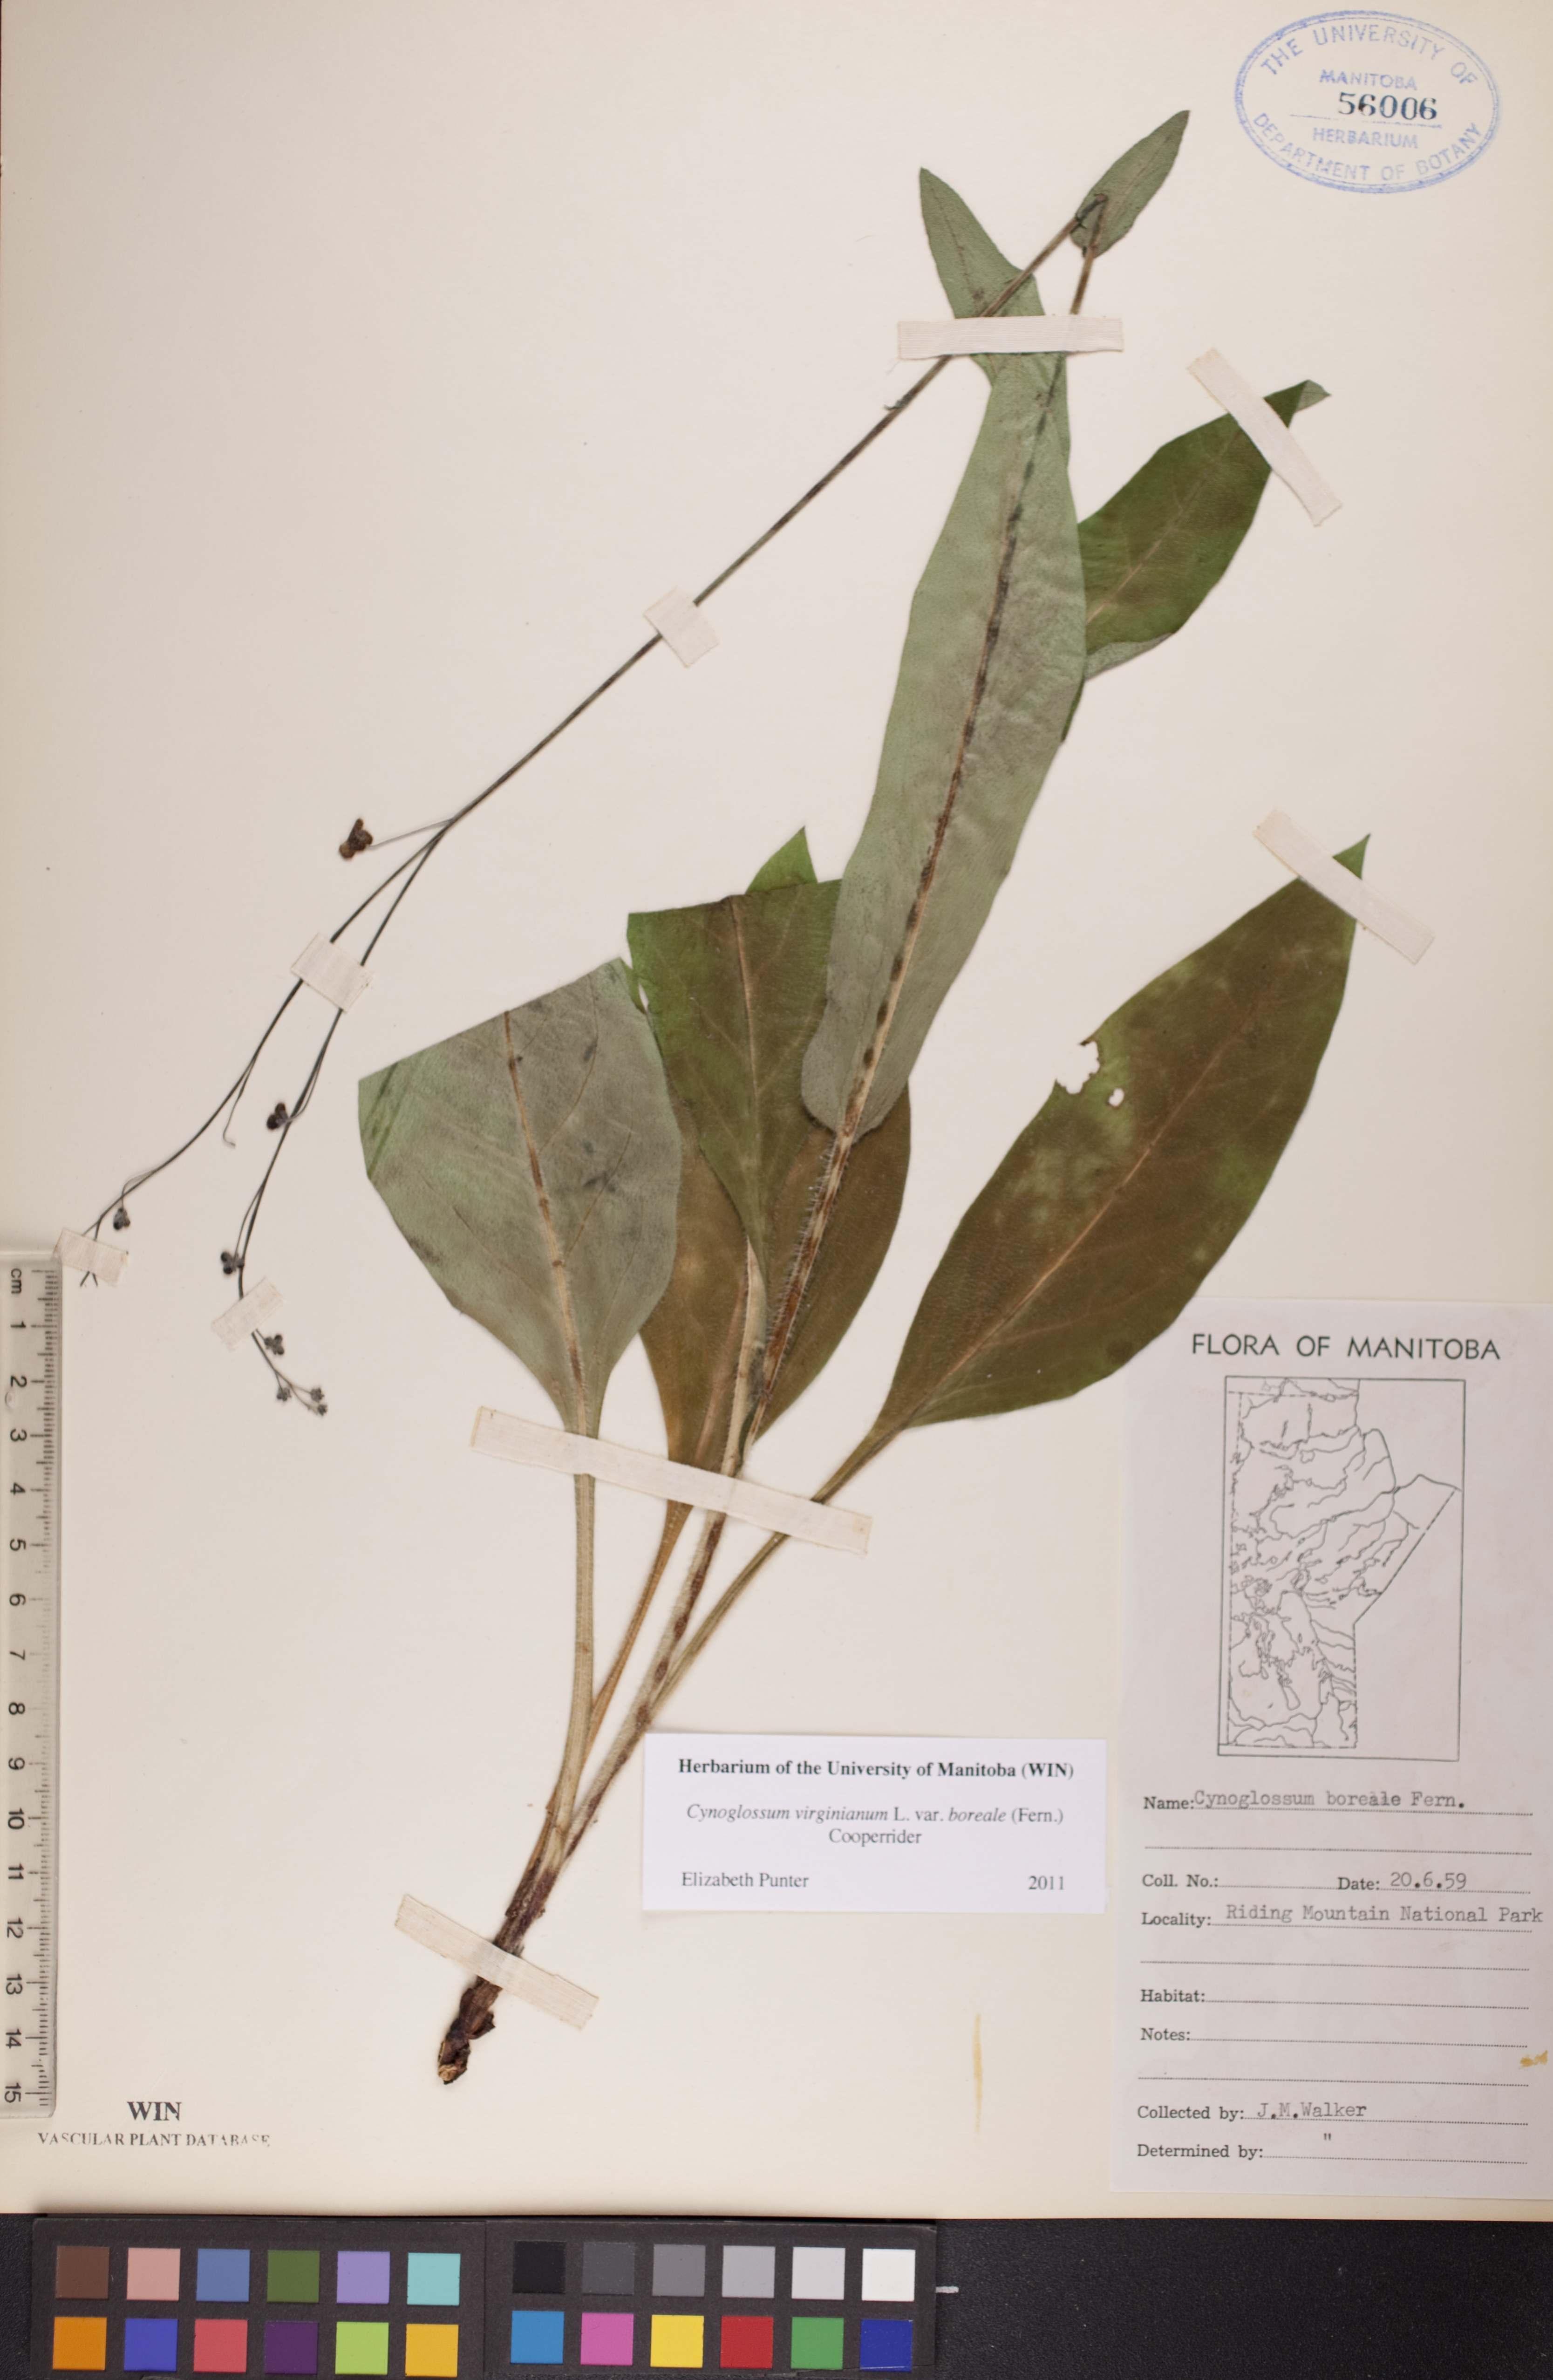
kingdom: Plantae
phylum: Tracheophyta
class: Magnoliopsida
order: Boraginales
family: Boraginaceae
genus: Andersonglossum
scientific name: Andersonglossum boreale
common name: Northern hound's-tongue
